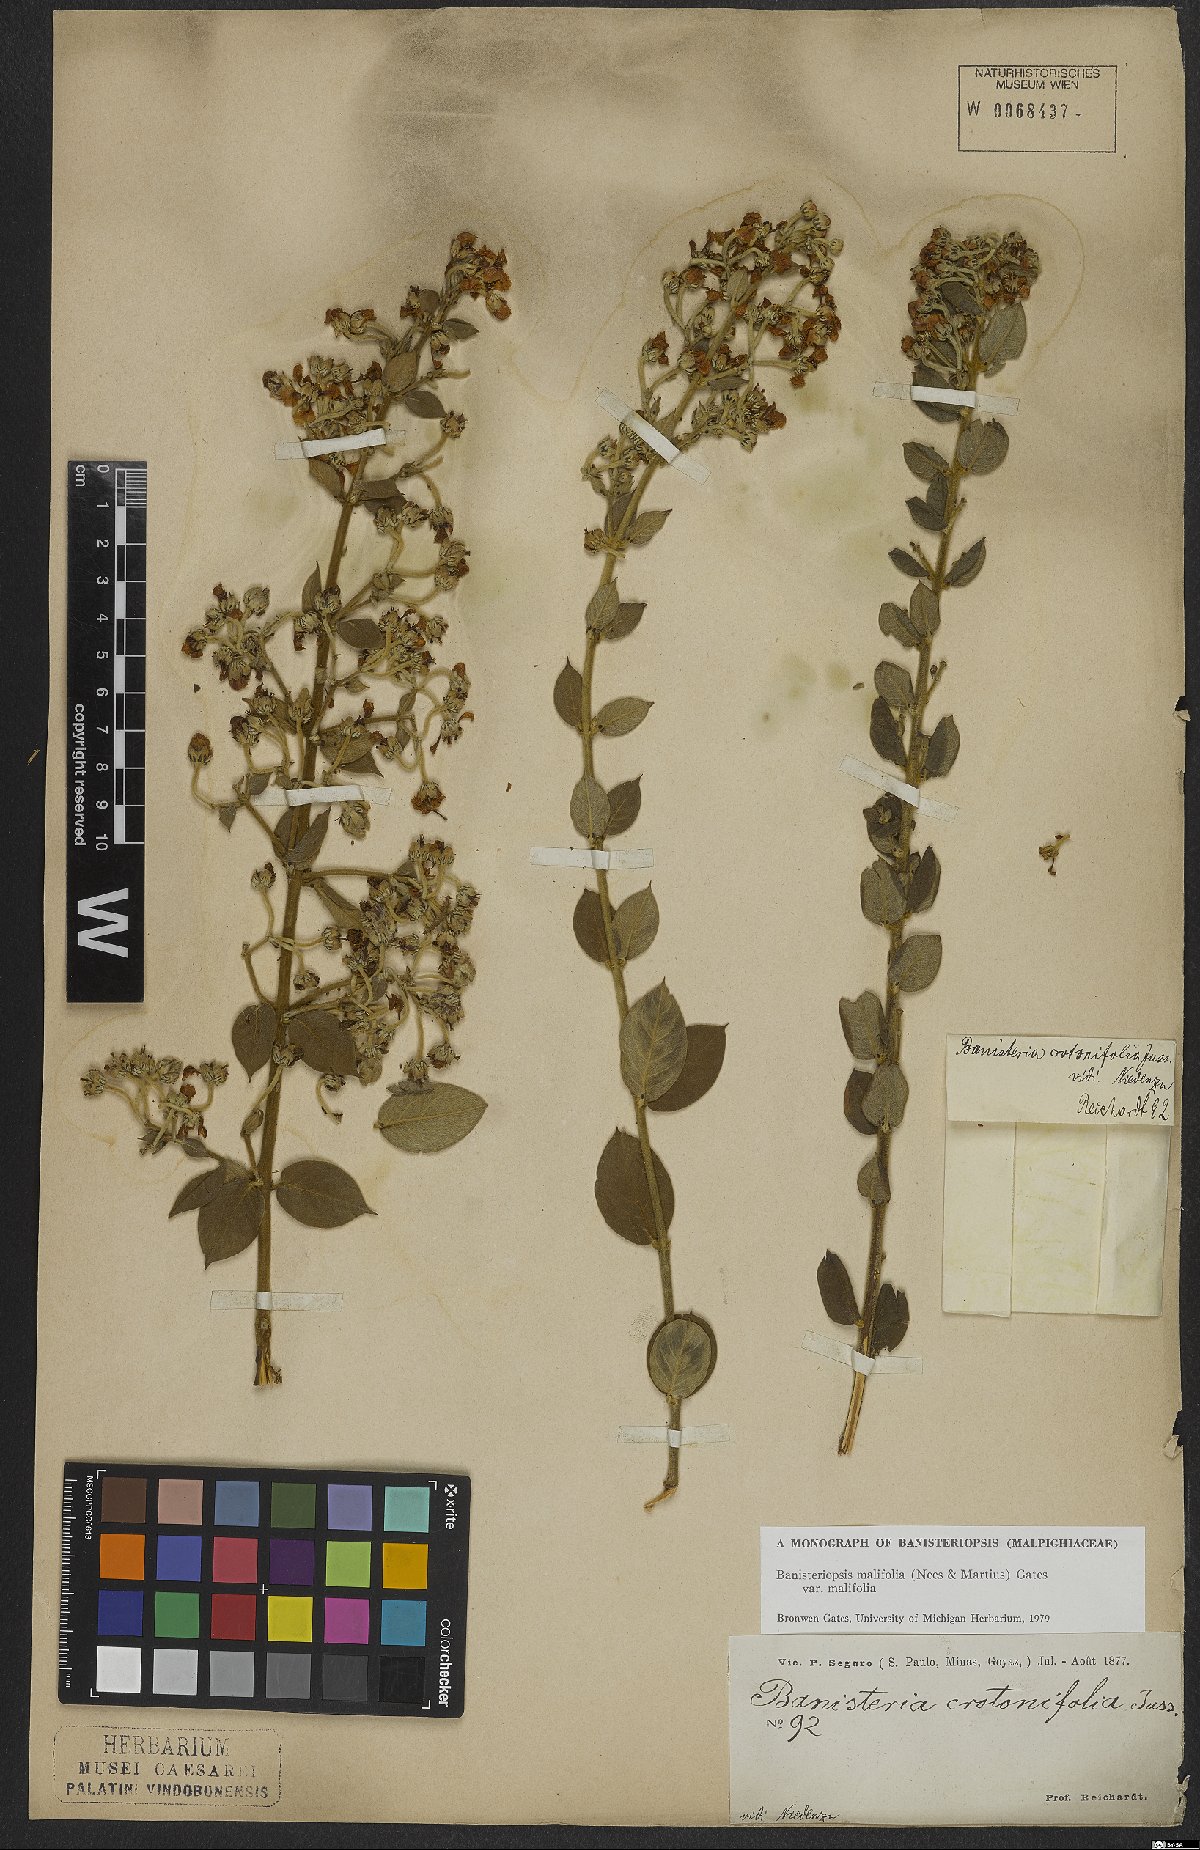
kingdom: Plantae
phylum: Tracheophyta
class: Magnoliopsida
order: Malpighiales
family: Malpighiaceae
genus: Banisteriopsis
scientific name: Banisteriopsis malifolia
